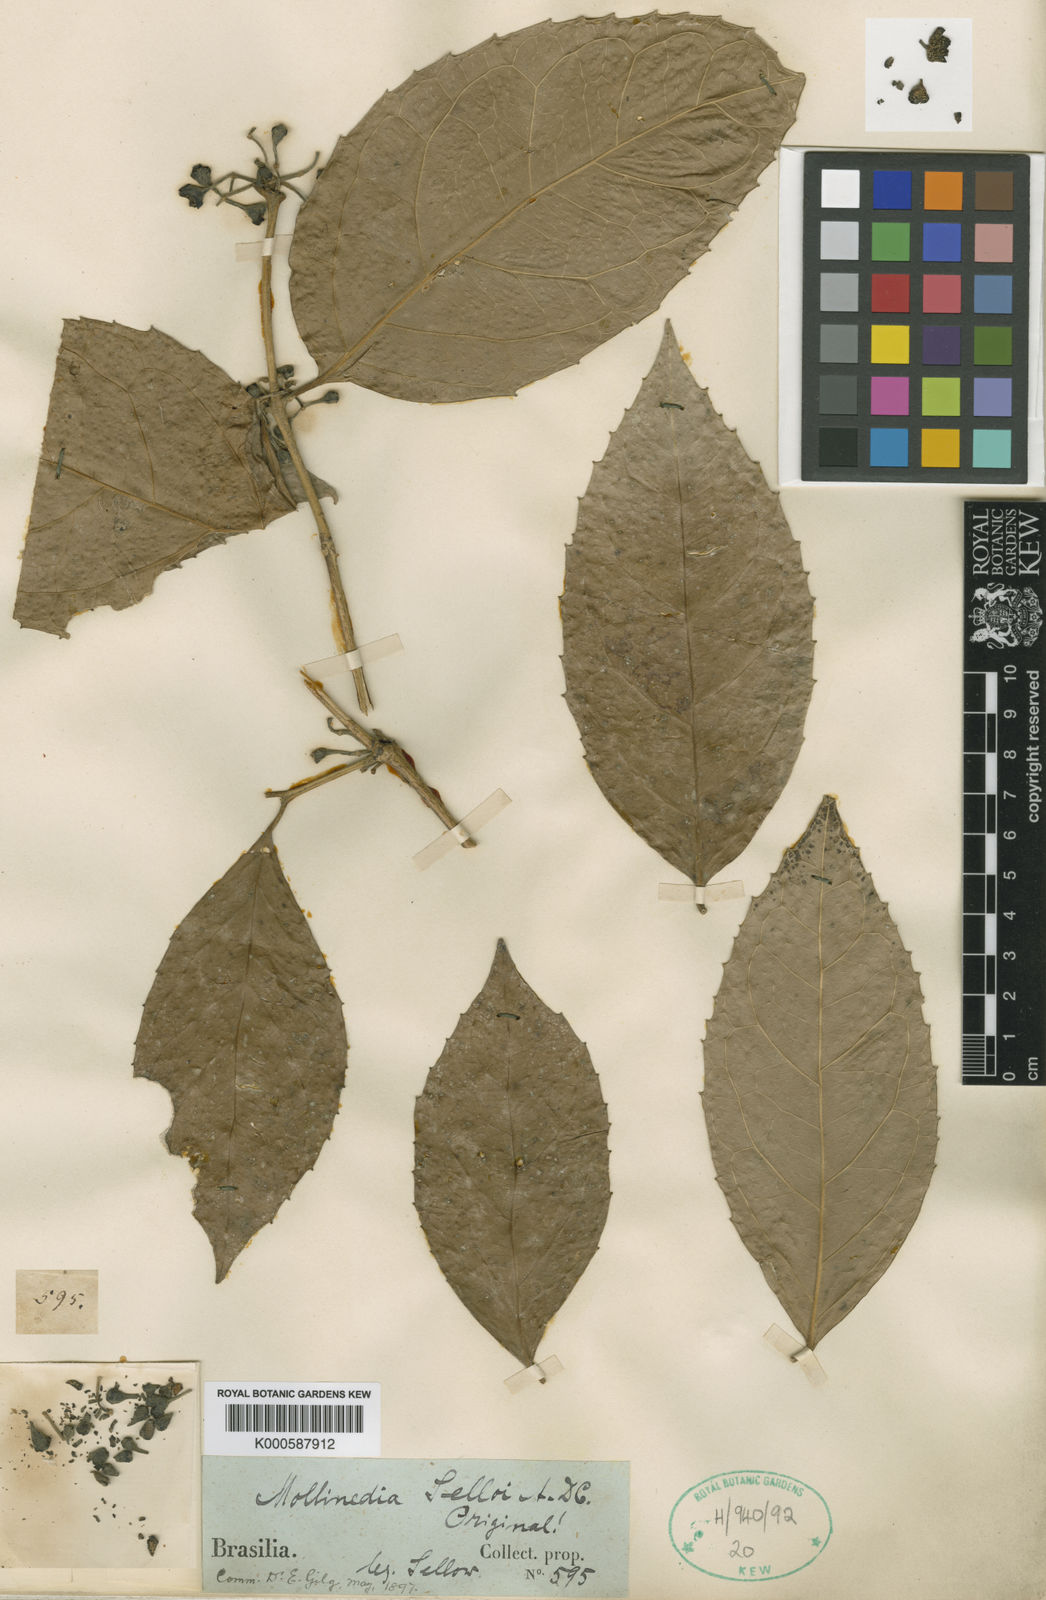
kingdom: Plantae
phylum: Tracheophyta
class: Magnoliopsida
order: Laurales
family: Monimiaceae
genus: Mollinedia
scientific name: Mollinedia ovata
